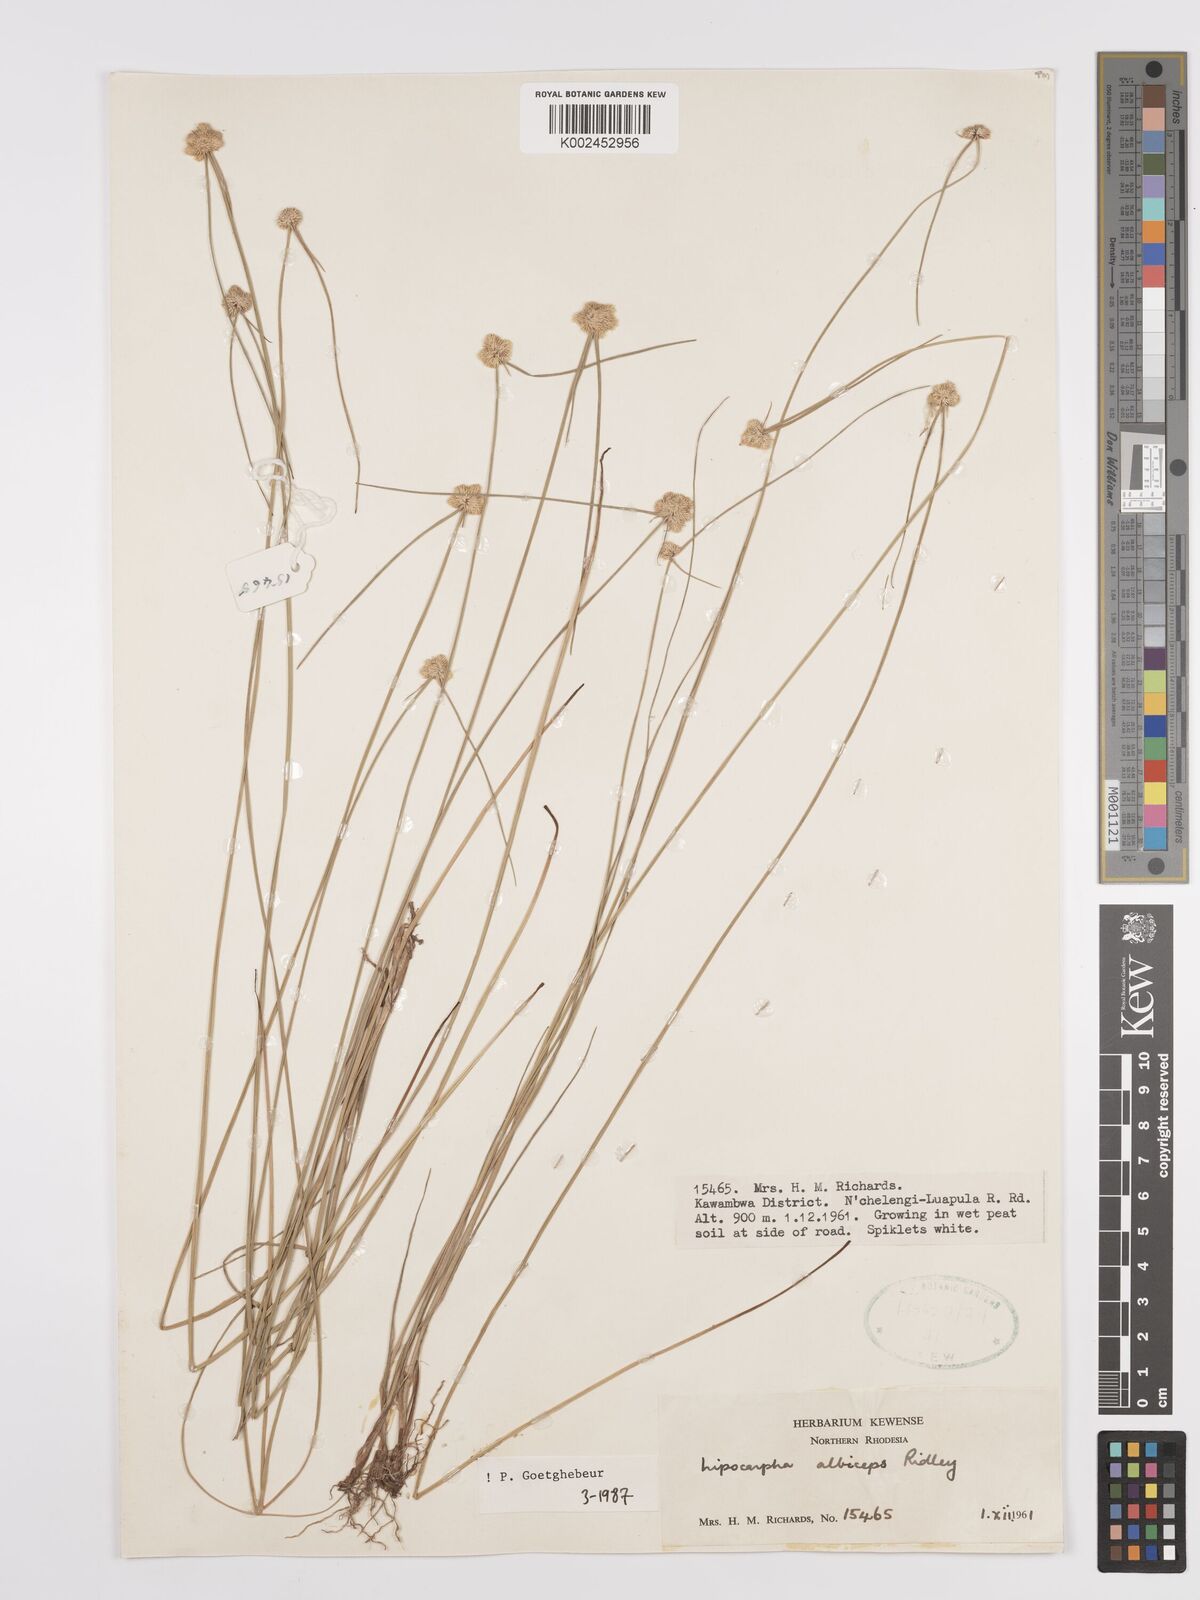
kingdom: Plantae
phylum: Tracheophyta
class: Liliopsida
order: Poales
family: Cyperaceae
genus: Cyperus
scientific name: Cyperus albiceps
